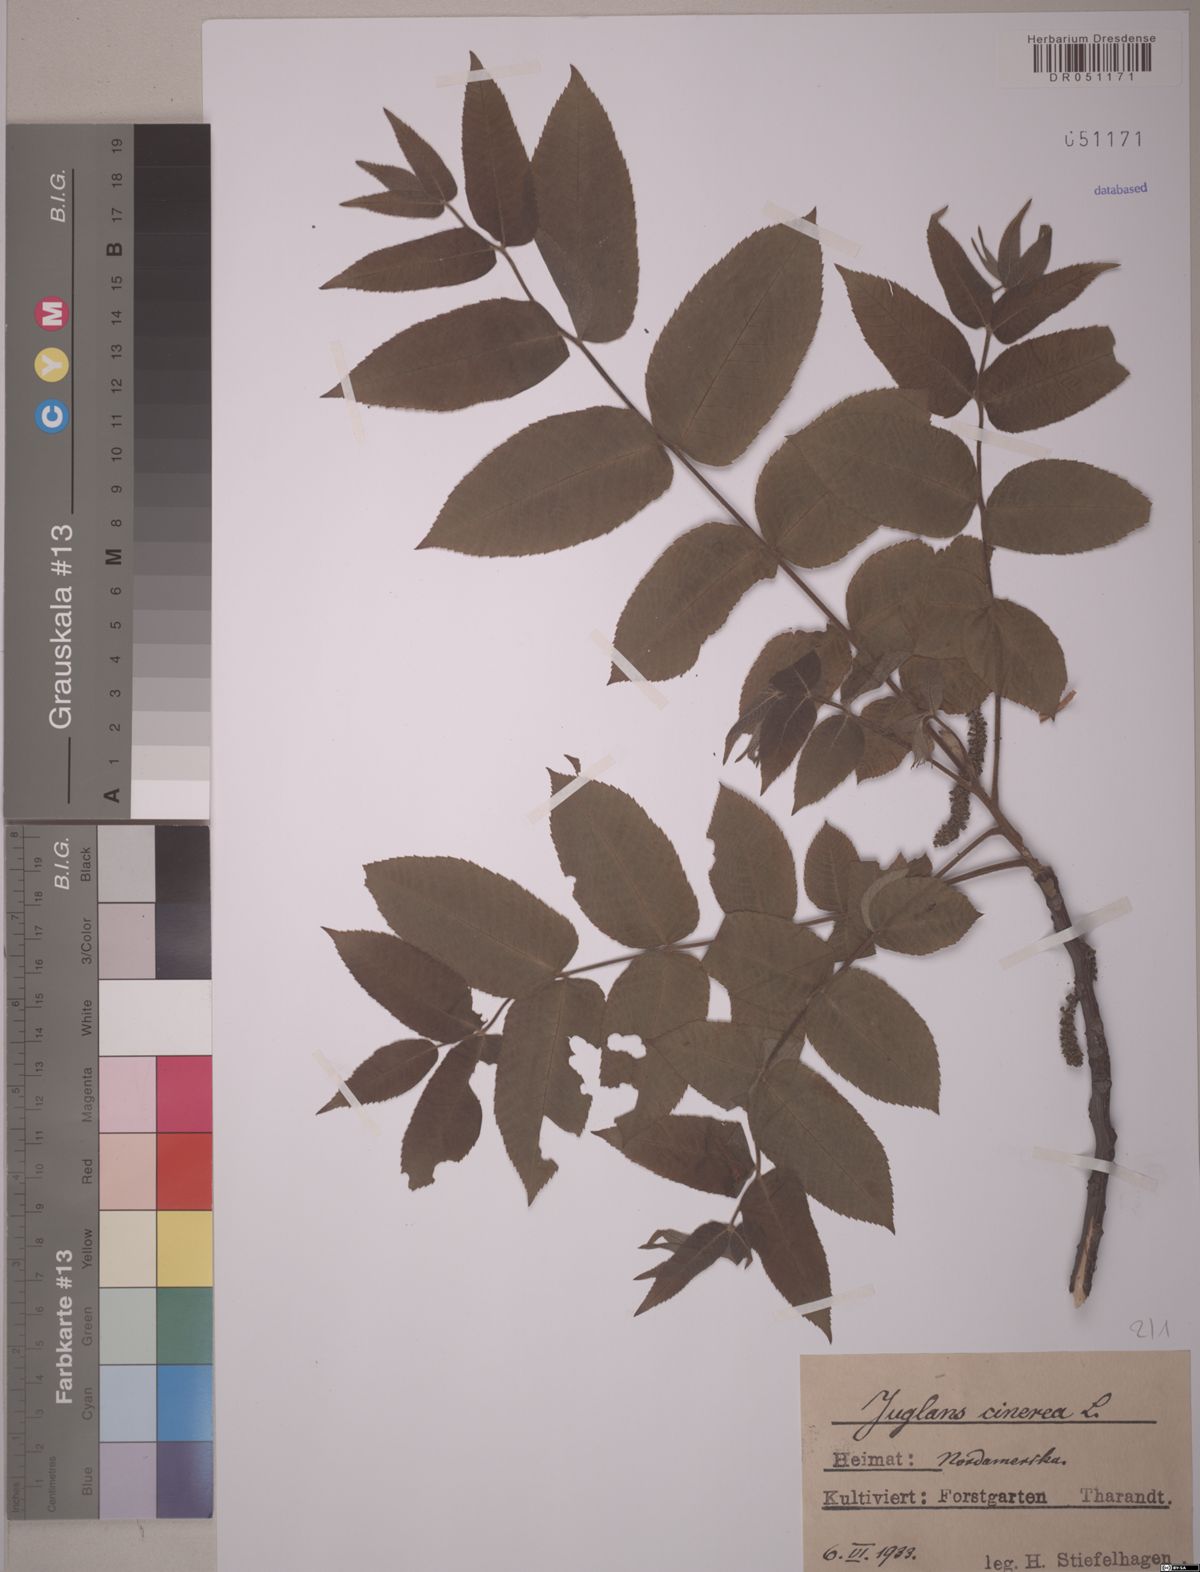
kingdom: Plantae
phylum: Tracheophyta
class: Magnoliopsida
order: Fagales
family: Juglandaceae
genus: Juglans
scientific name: Juglans cinerea
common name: Butternut
